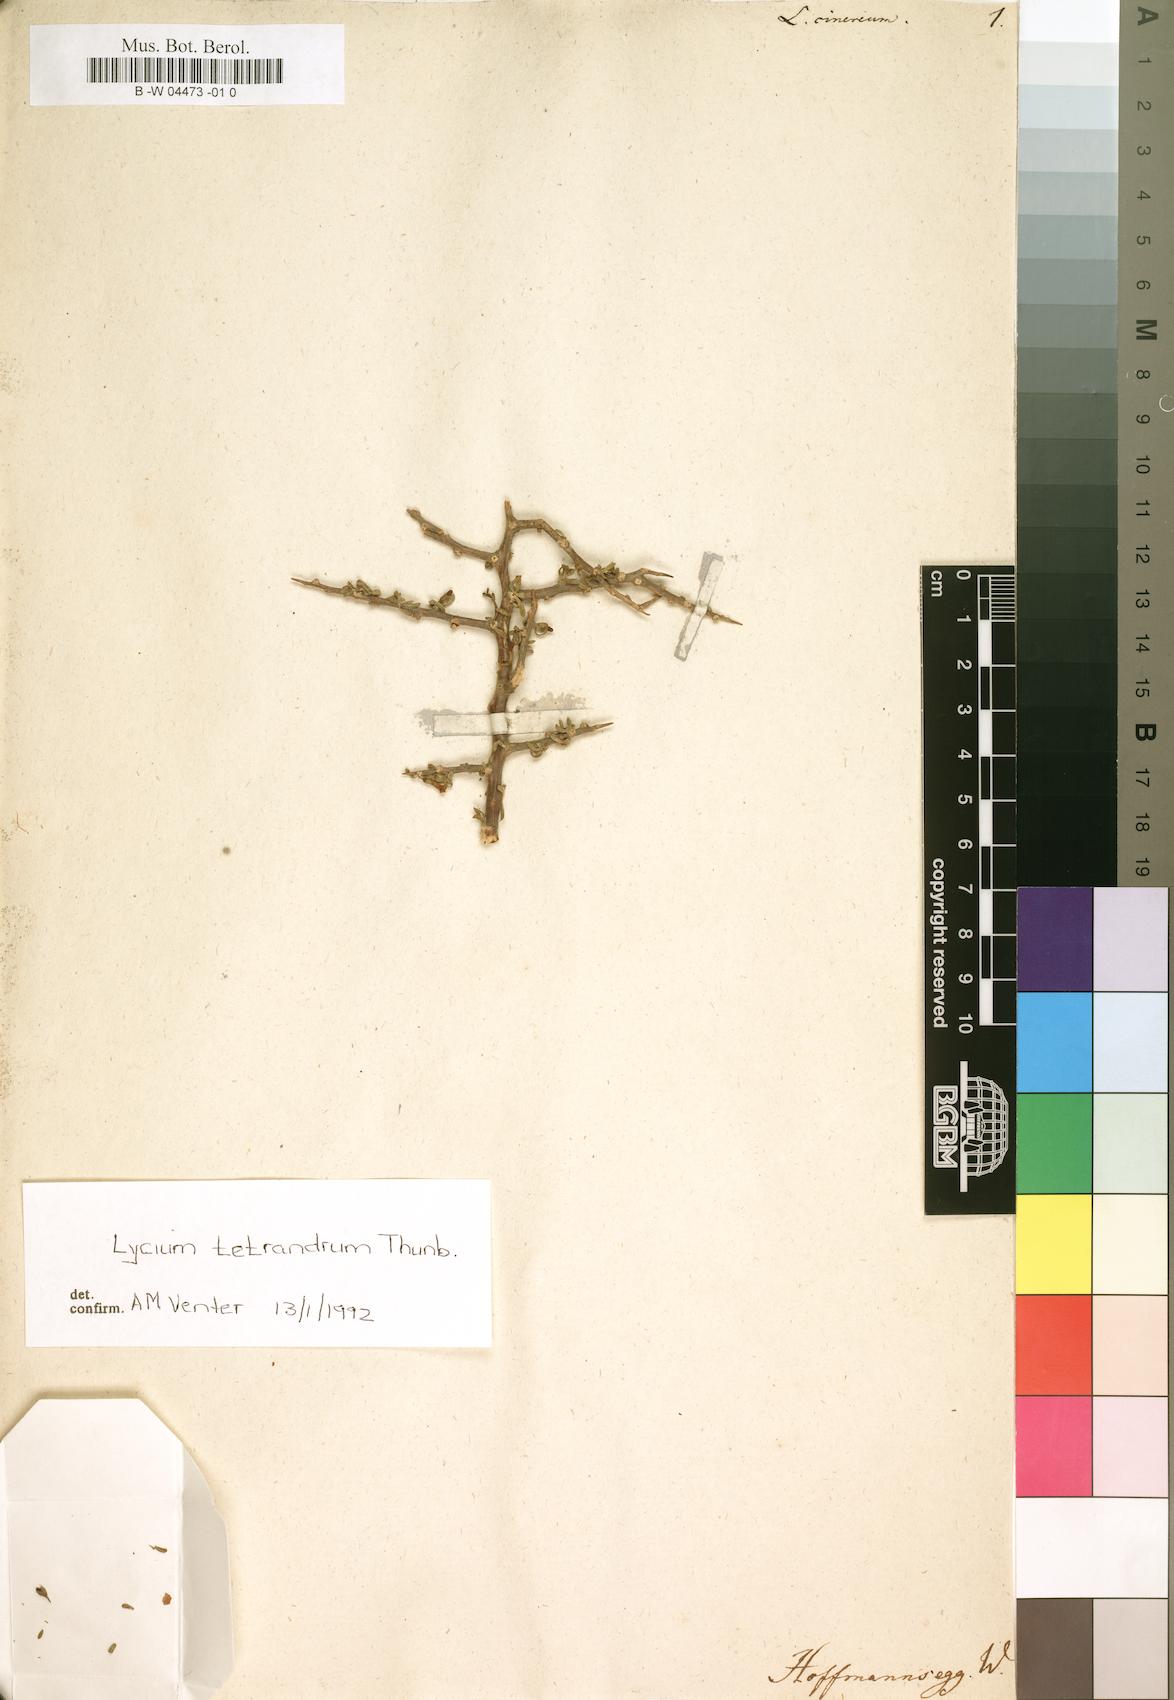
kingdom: Plantae
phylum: Tracheophyta
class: Magnoliopsida
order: Solanales
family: Solanaceae
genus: Lycium
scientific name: Lycium cinereum
